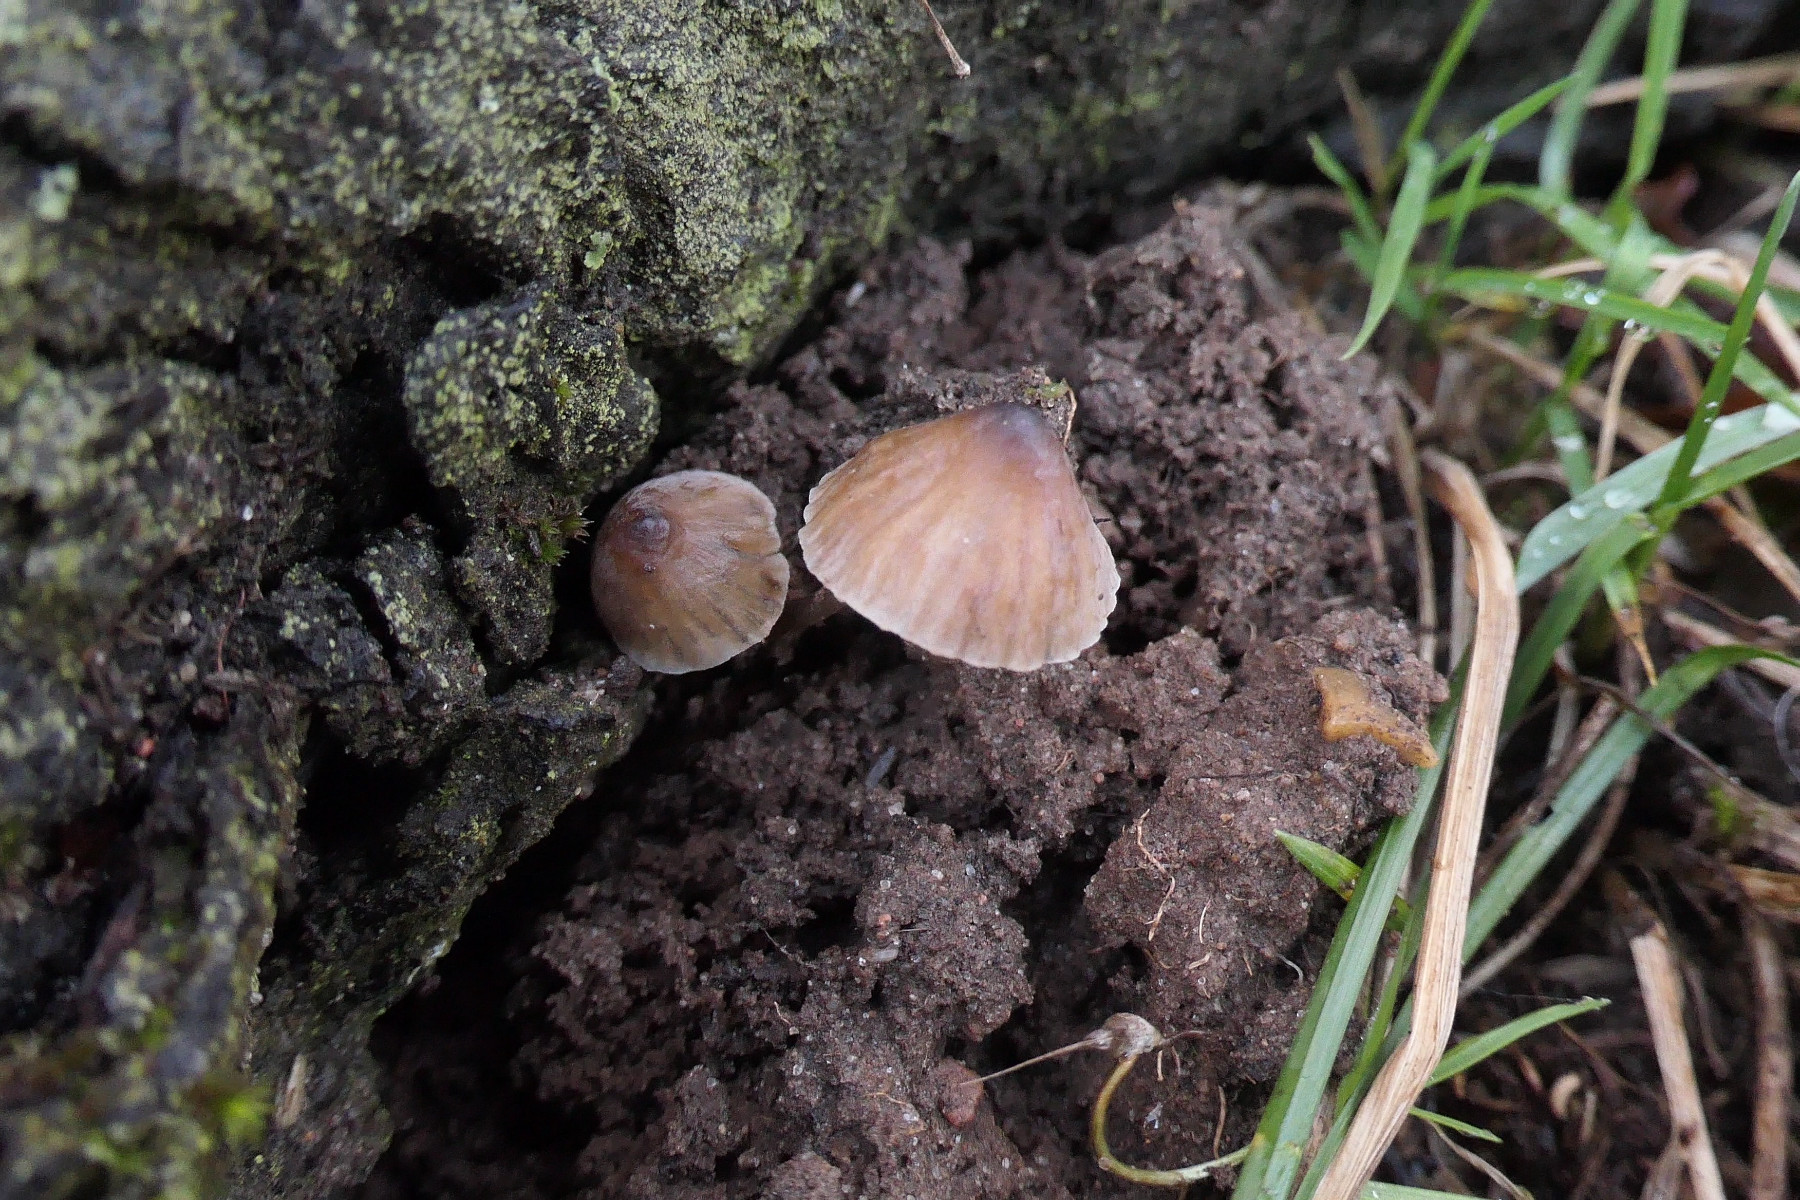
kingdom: Fungi
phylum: Basidiomycota
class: Agaricomycetes
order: Agaricales
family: Mycenaceae
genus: Mycena
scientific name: Mycena erubescens
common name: galde-huesvamp
